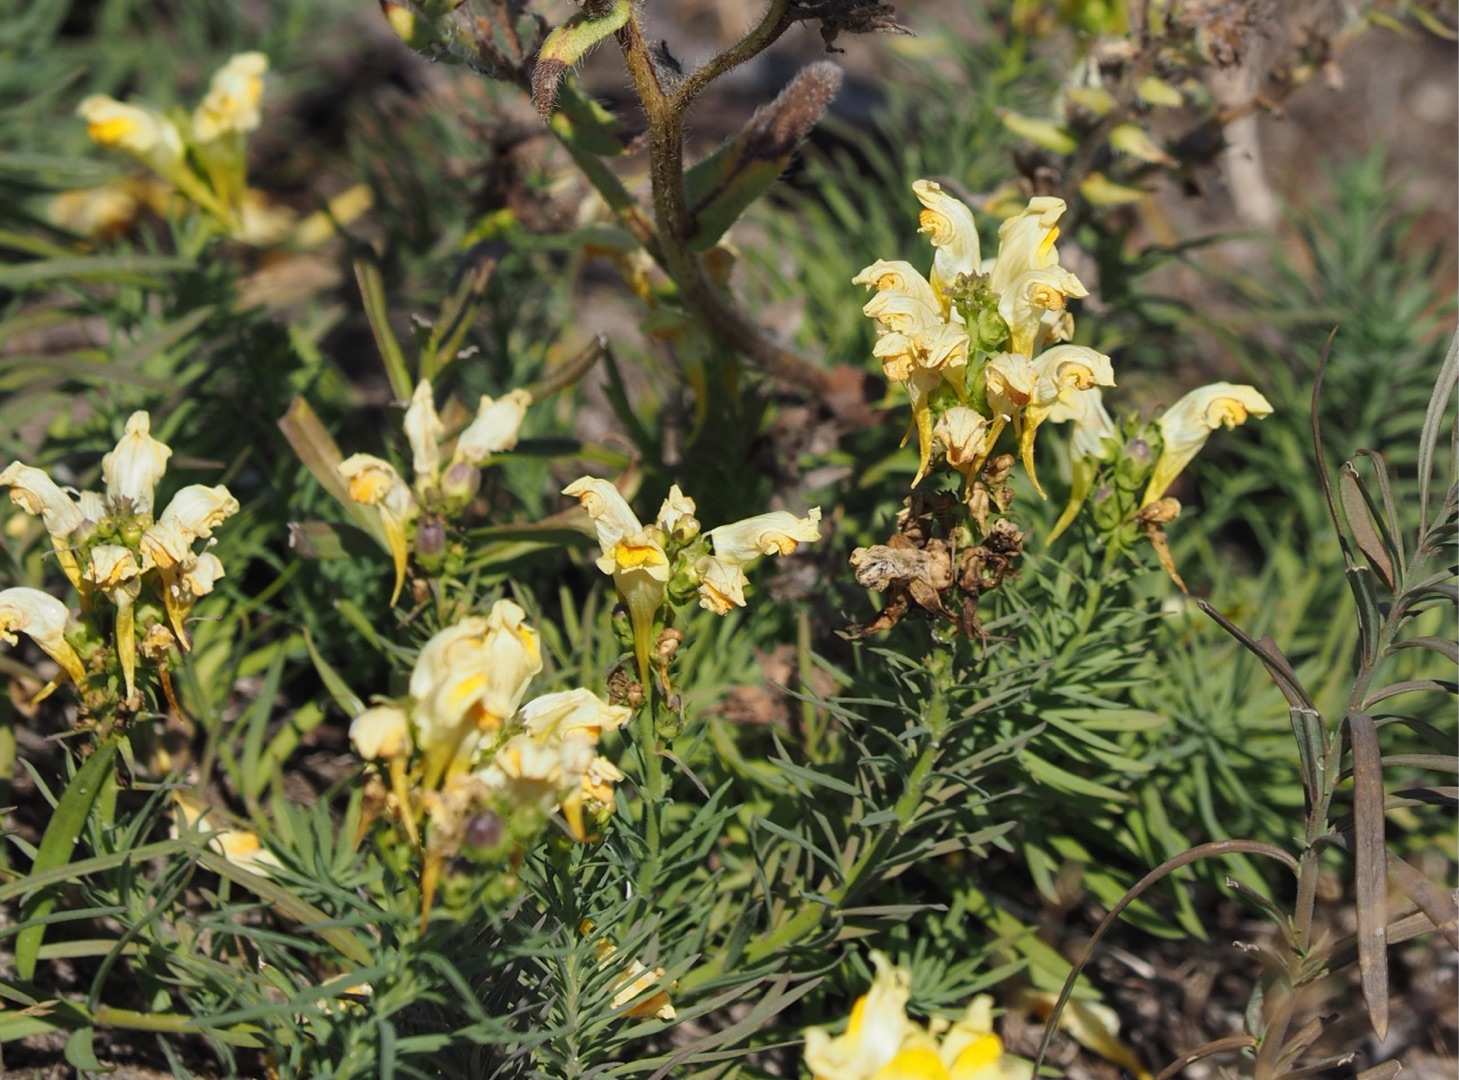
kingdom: Plantae
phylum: Tracheophyta
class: Magnoliopsida
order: Lamiales
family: Plantaginaceae
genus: Linaria
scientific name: Linaria vulgaris
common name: Almindelig torskemund
